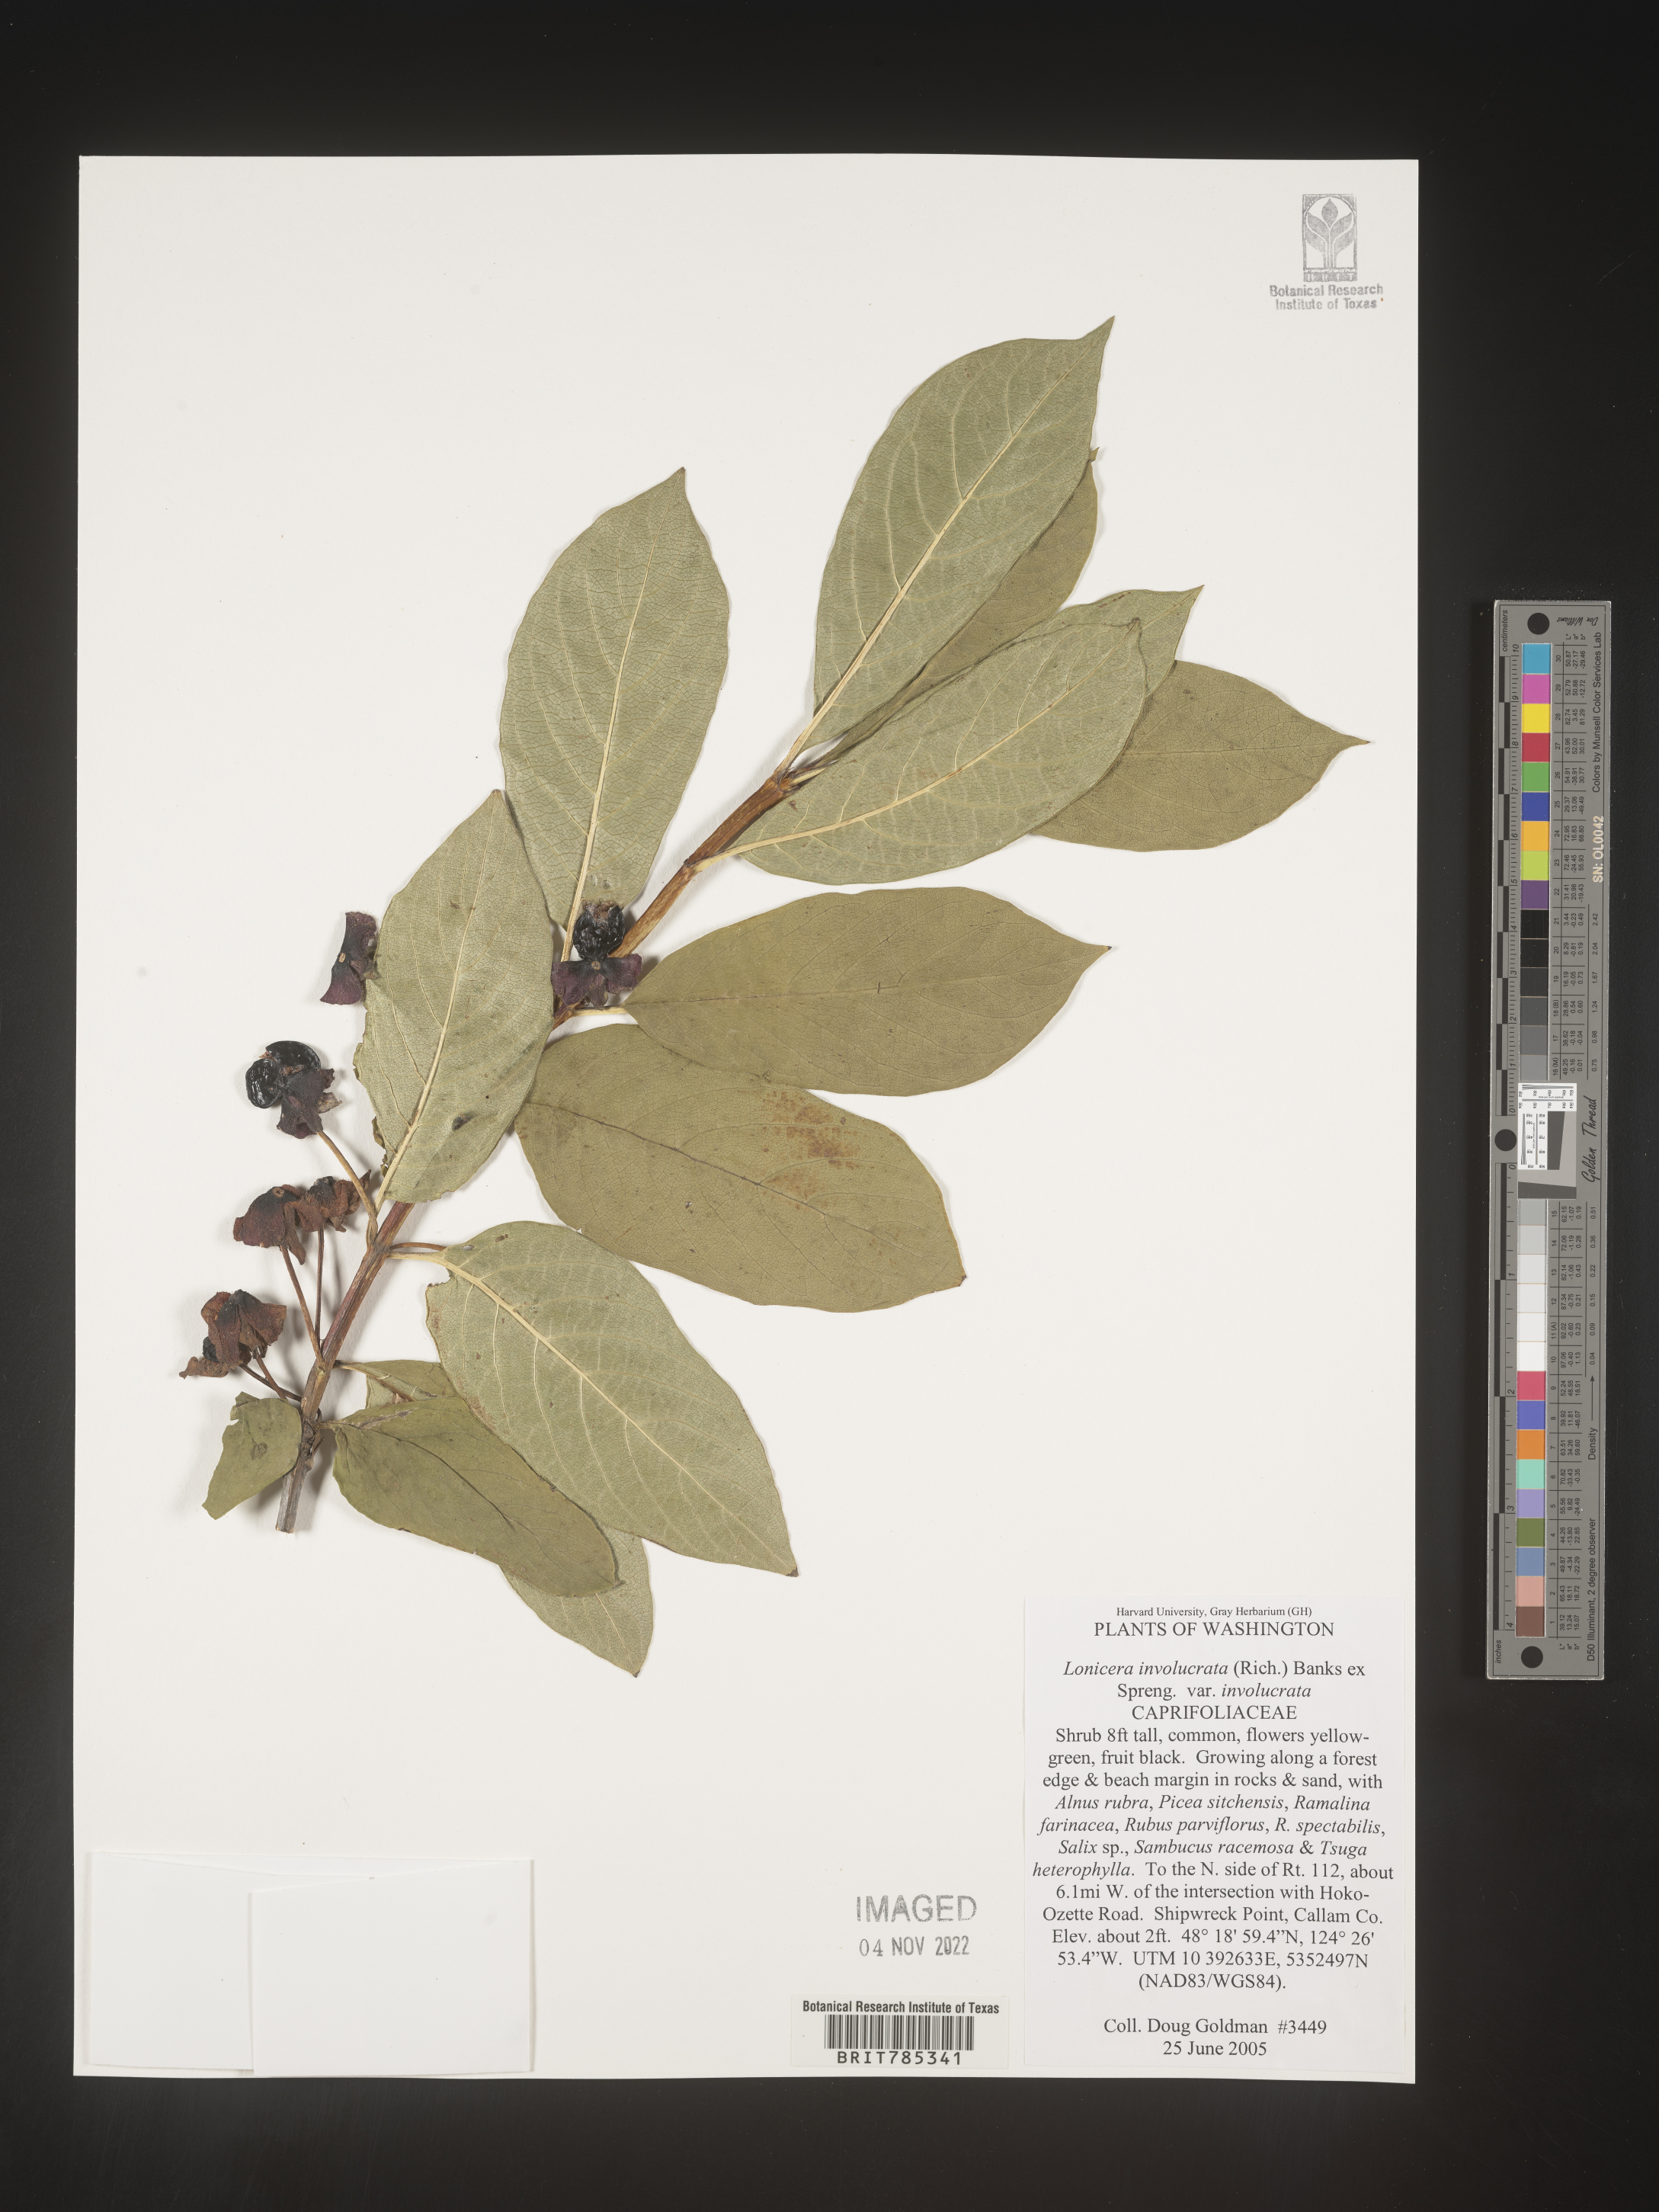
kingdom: Plantae
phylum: Tracheophyta
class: Magnoliopsida
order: Dipsacales
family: Caprifoliaceae
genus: Lonicera
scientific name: Lonicera involucrata
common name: Californian honeysuckle
